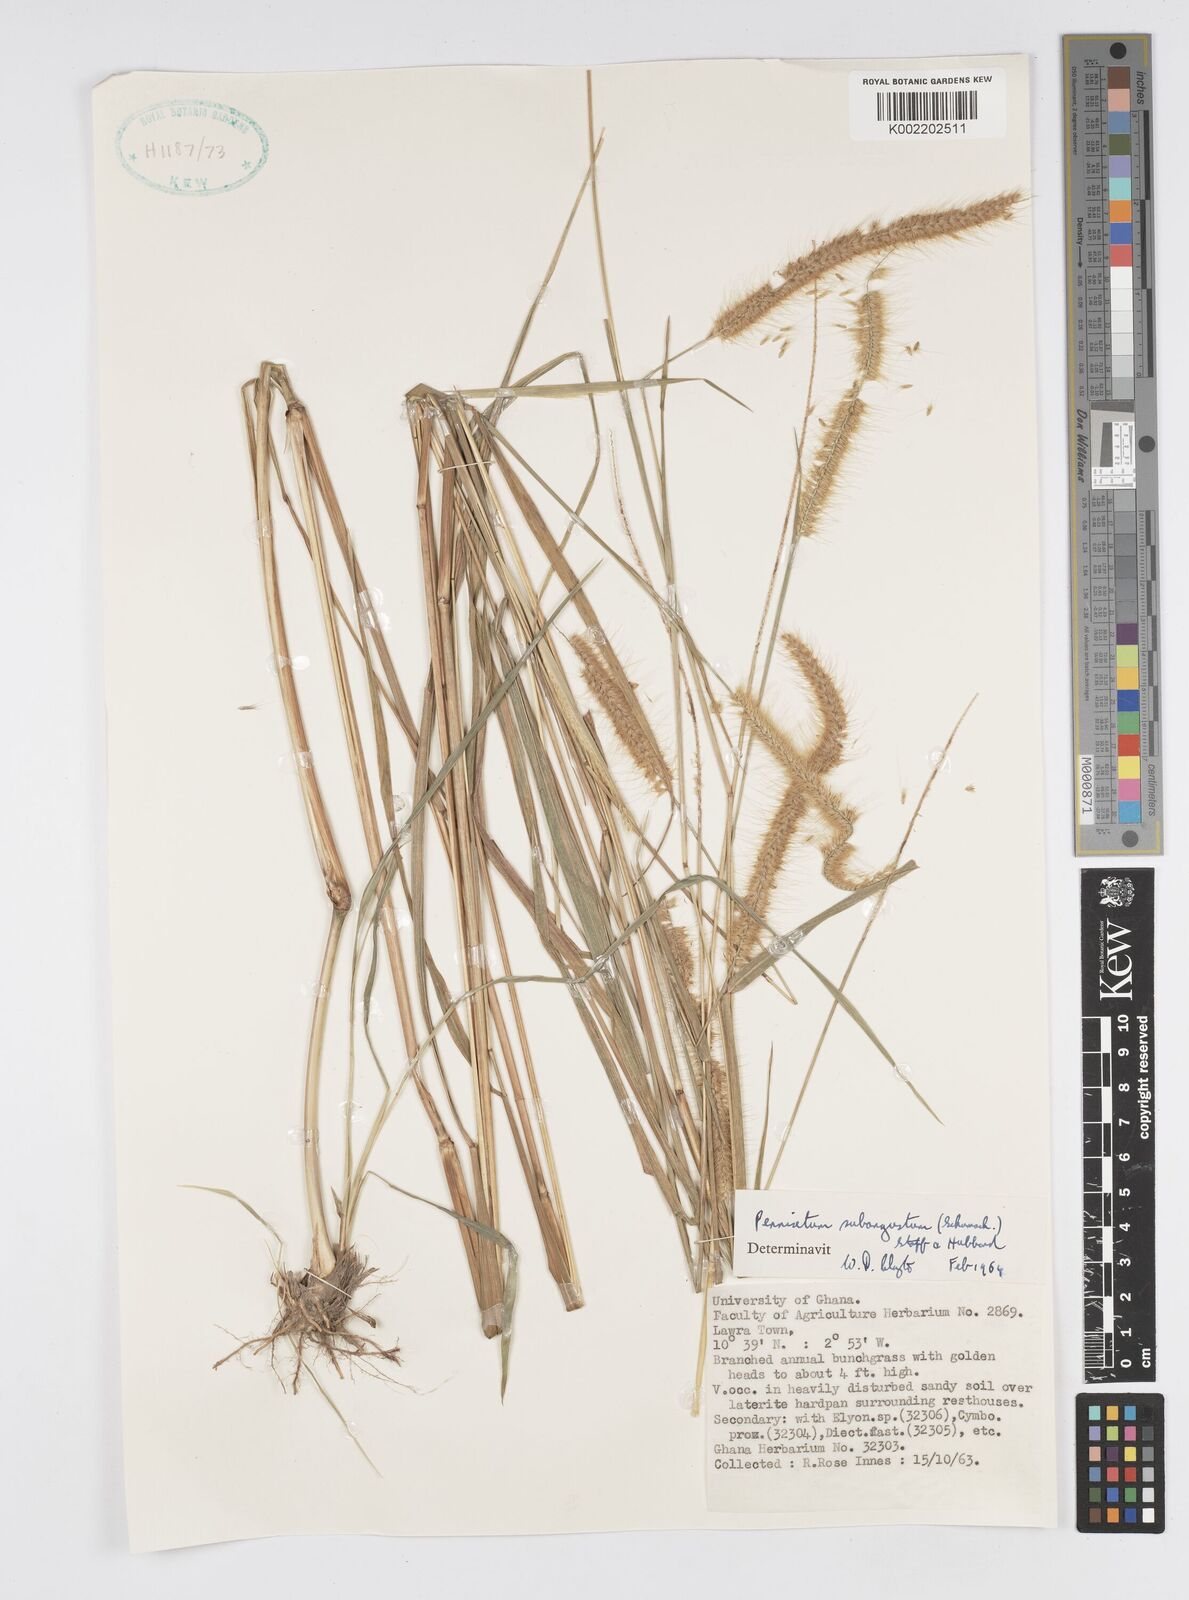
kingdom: Plantae
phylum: Tracheophyta
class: Liliopsida
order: Poales
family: Poaceae
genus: Setaria
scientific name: Setaria parviflora
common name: Knotroot bristle-grass
